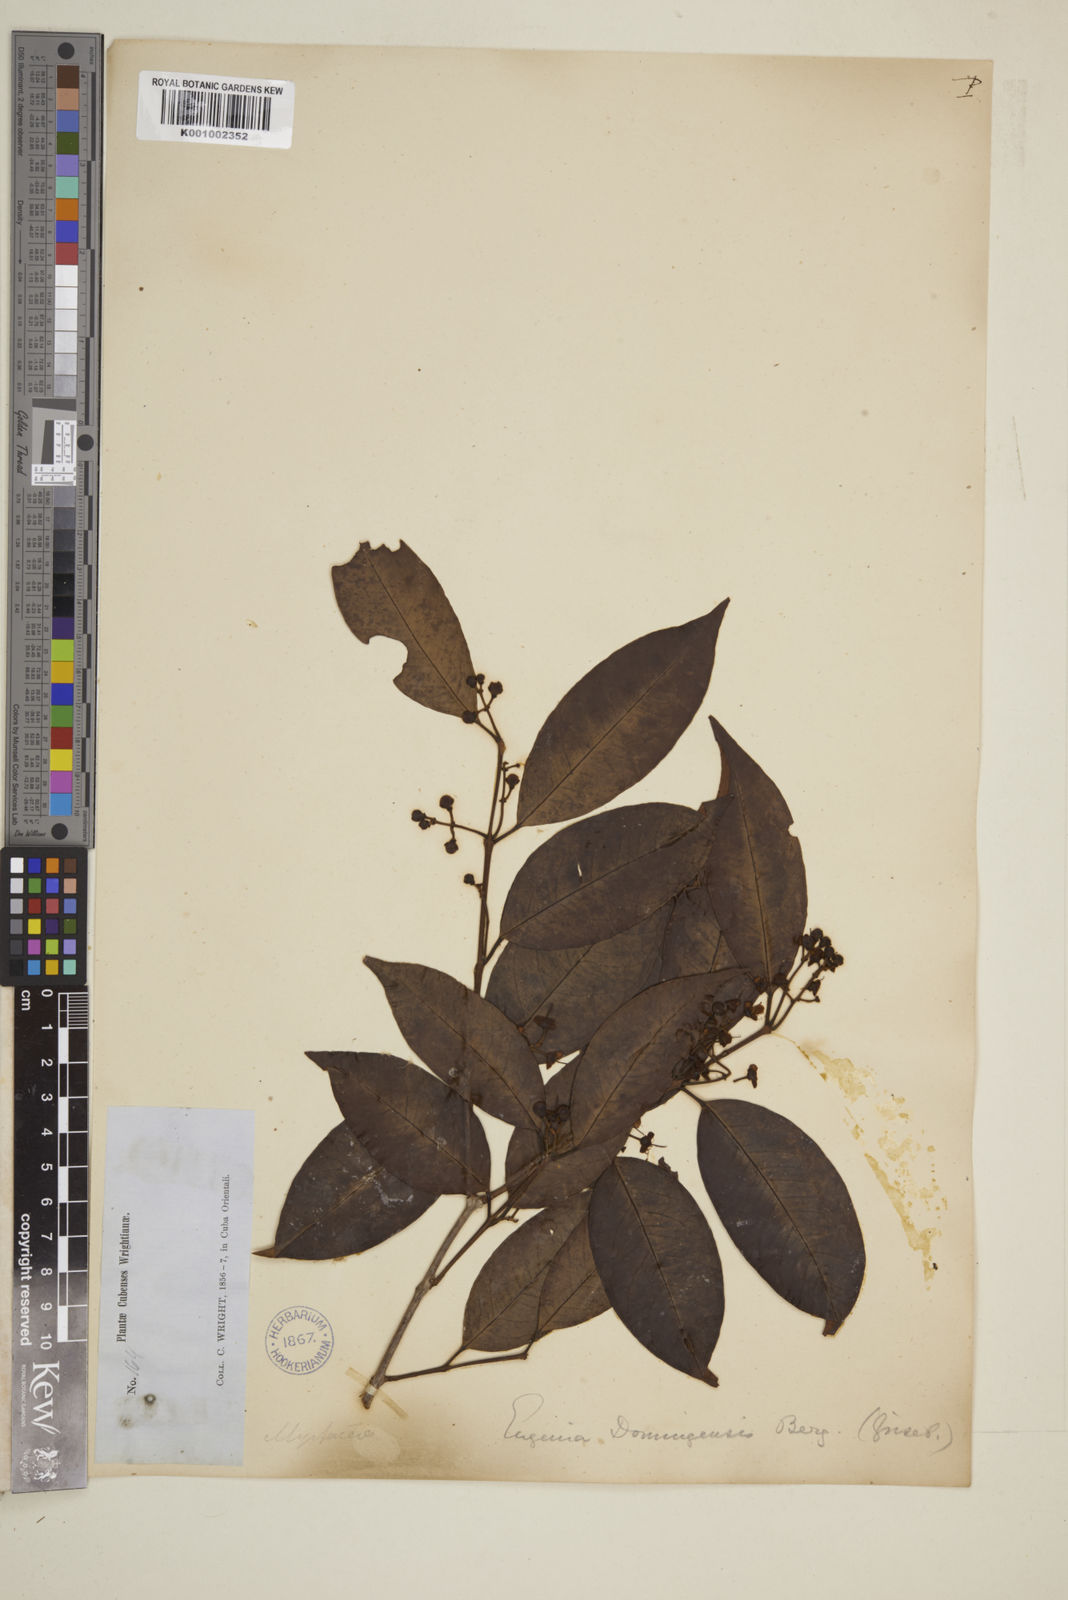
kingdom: Plantae
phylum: Tracheophyta
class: Magnoliopsida
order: Myrtales
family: Myrtaceae
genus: Eugenia
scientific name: Eugenia aeruginea
